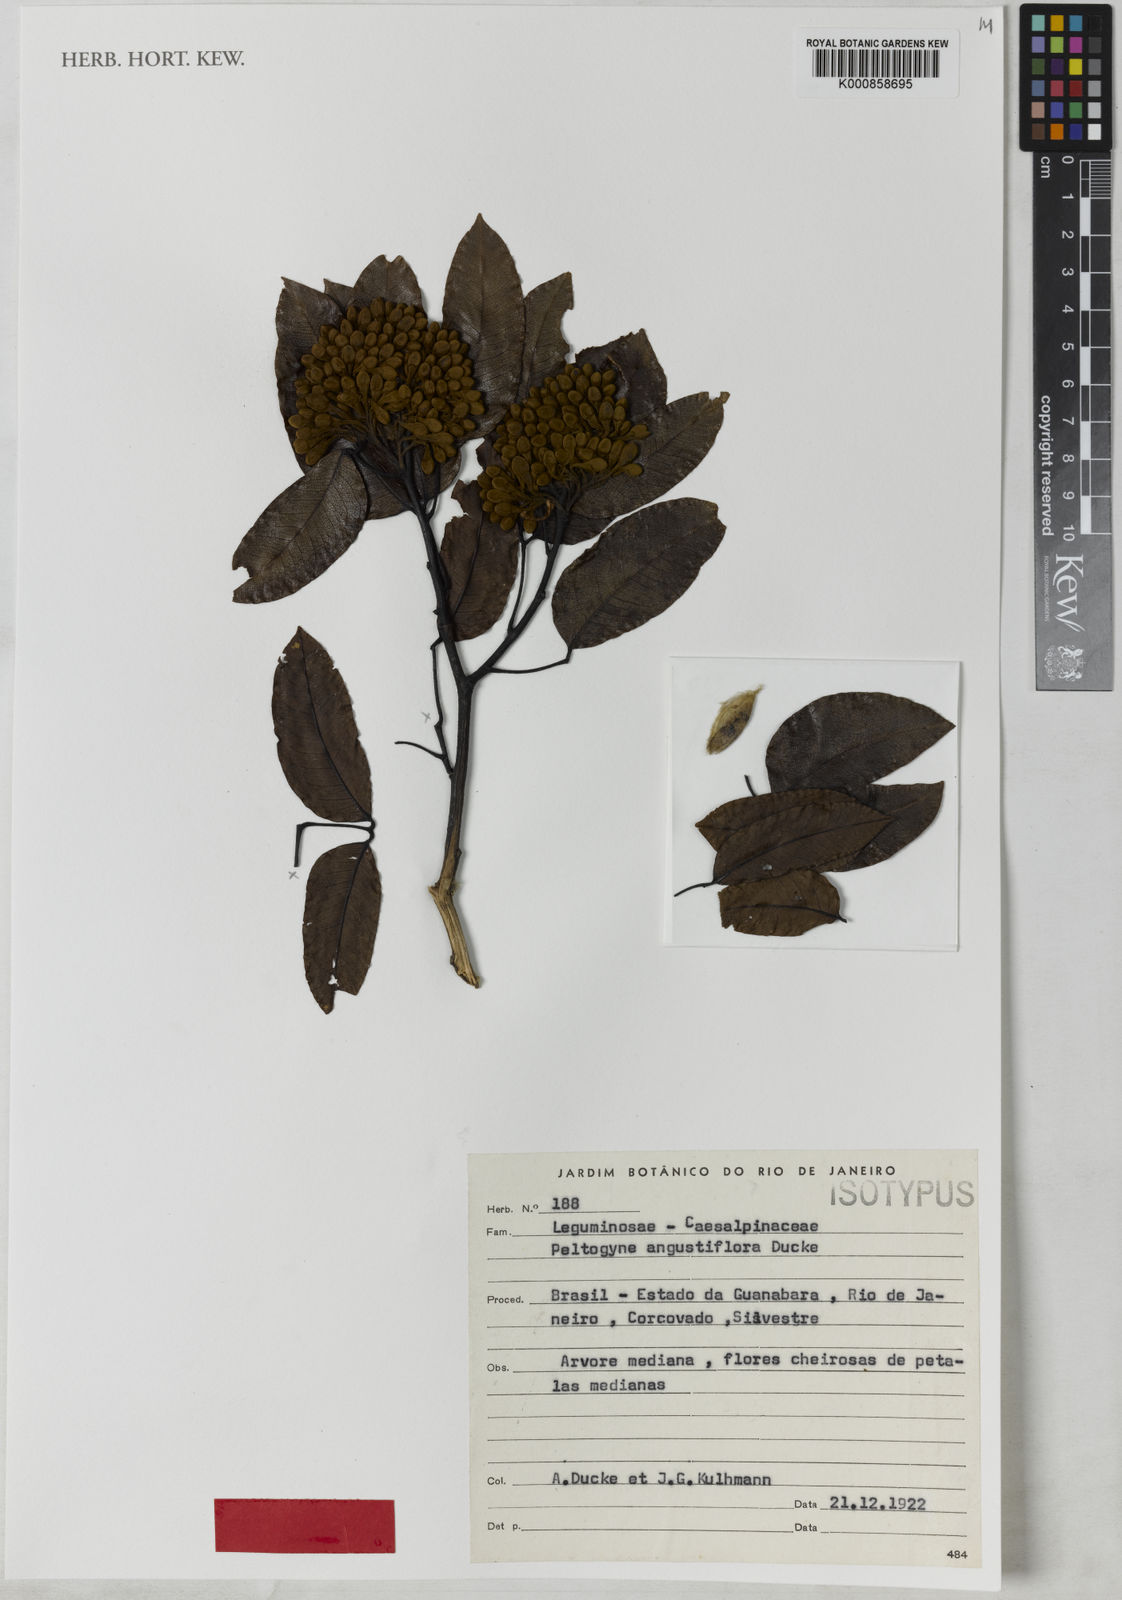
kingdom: Plantae
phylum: Tracheophyta
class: Magnoliopsida
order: Fabales
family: Fabaceae
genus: Peltogyne
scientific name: Peltogyne angustiflora
